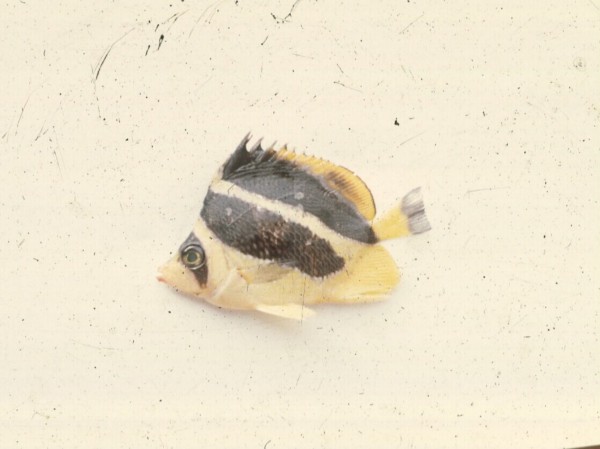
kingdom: Animalia
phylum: Chordata
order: Perciformes
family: Chaetodontidae
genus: Chaetodon
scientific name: Chaetodon mitratus
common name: Indian butterflyfish
